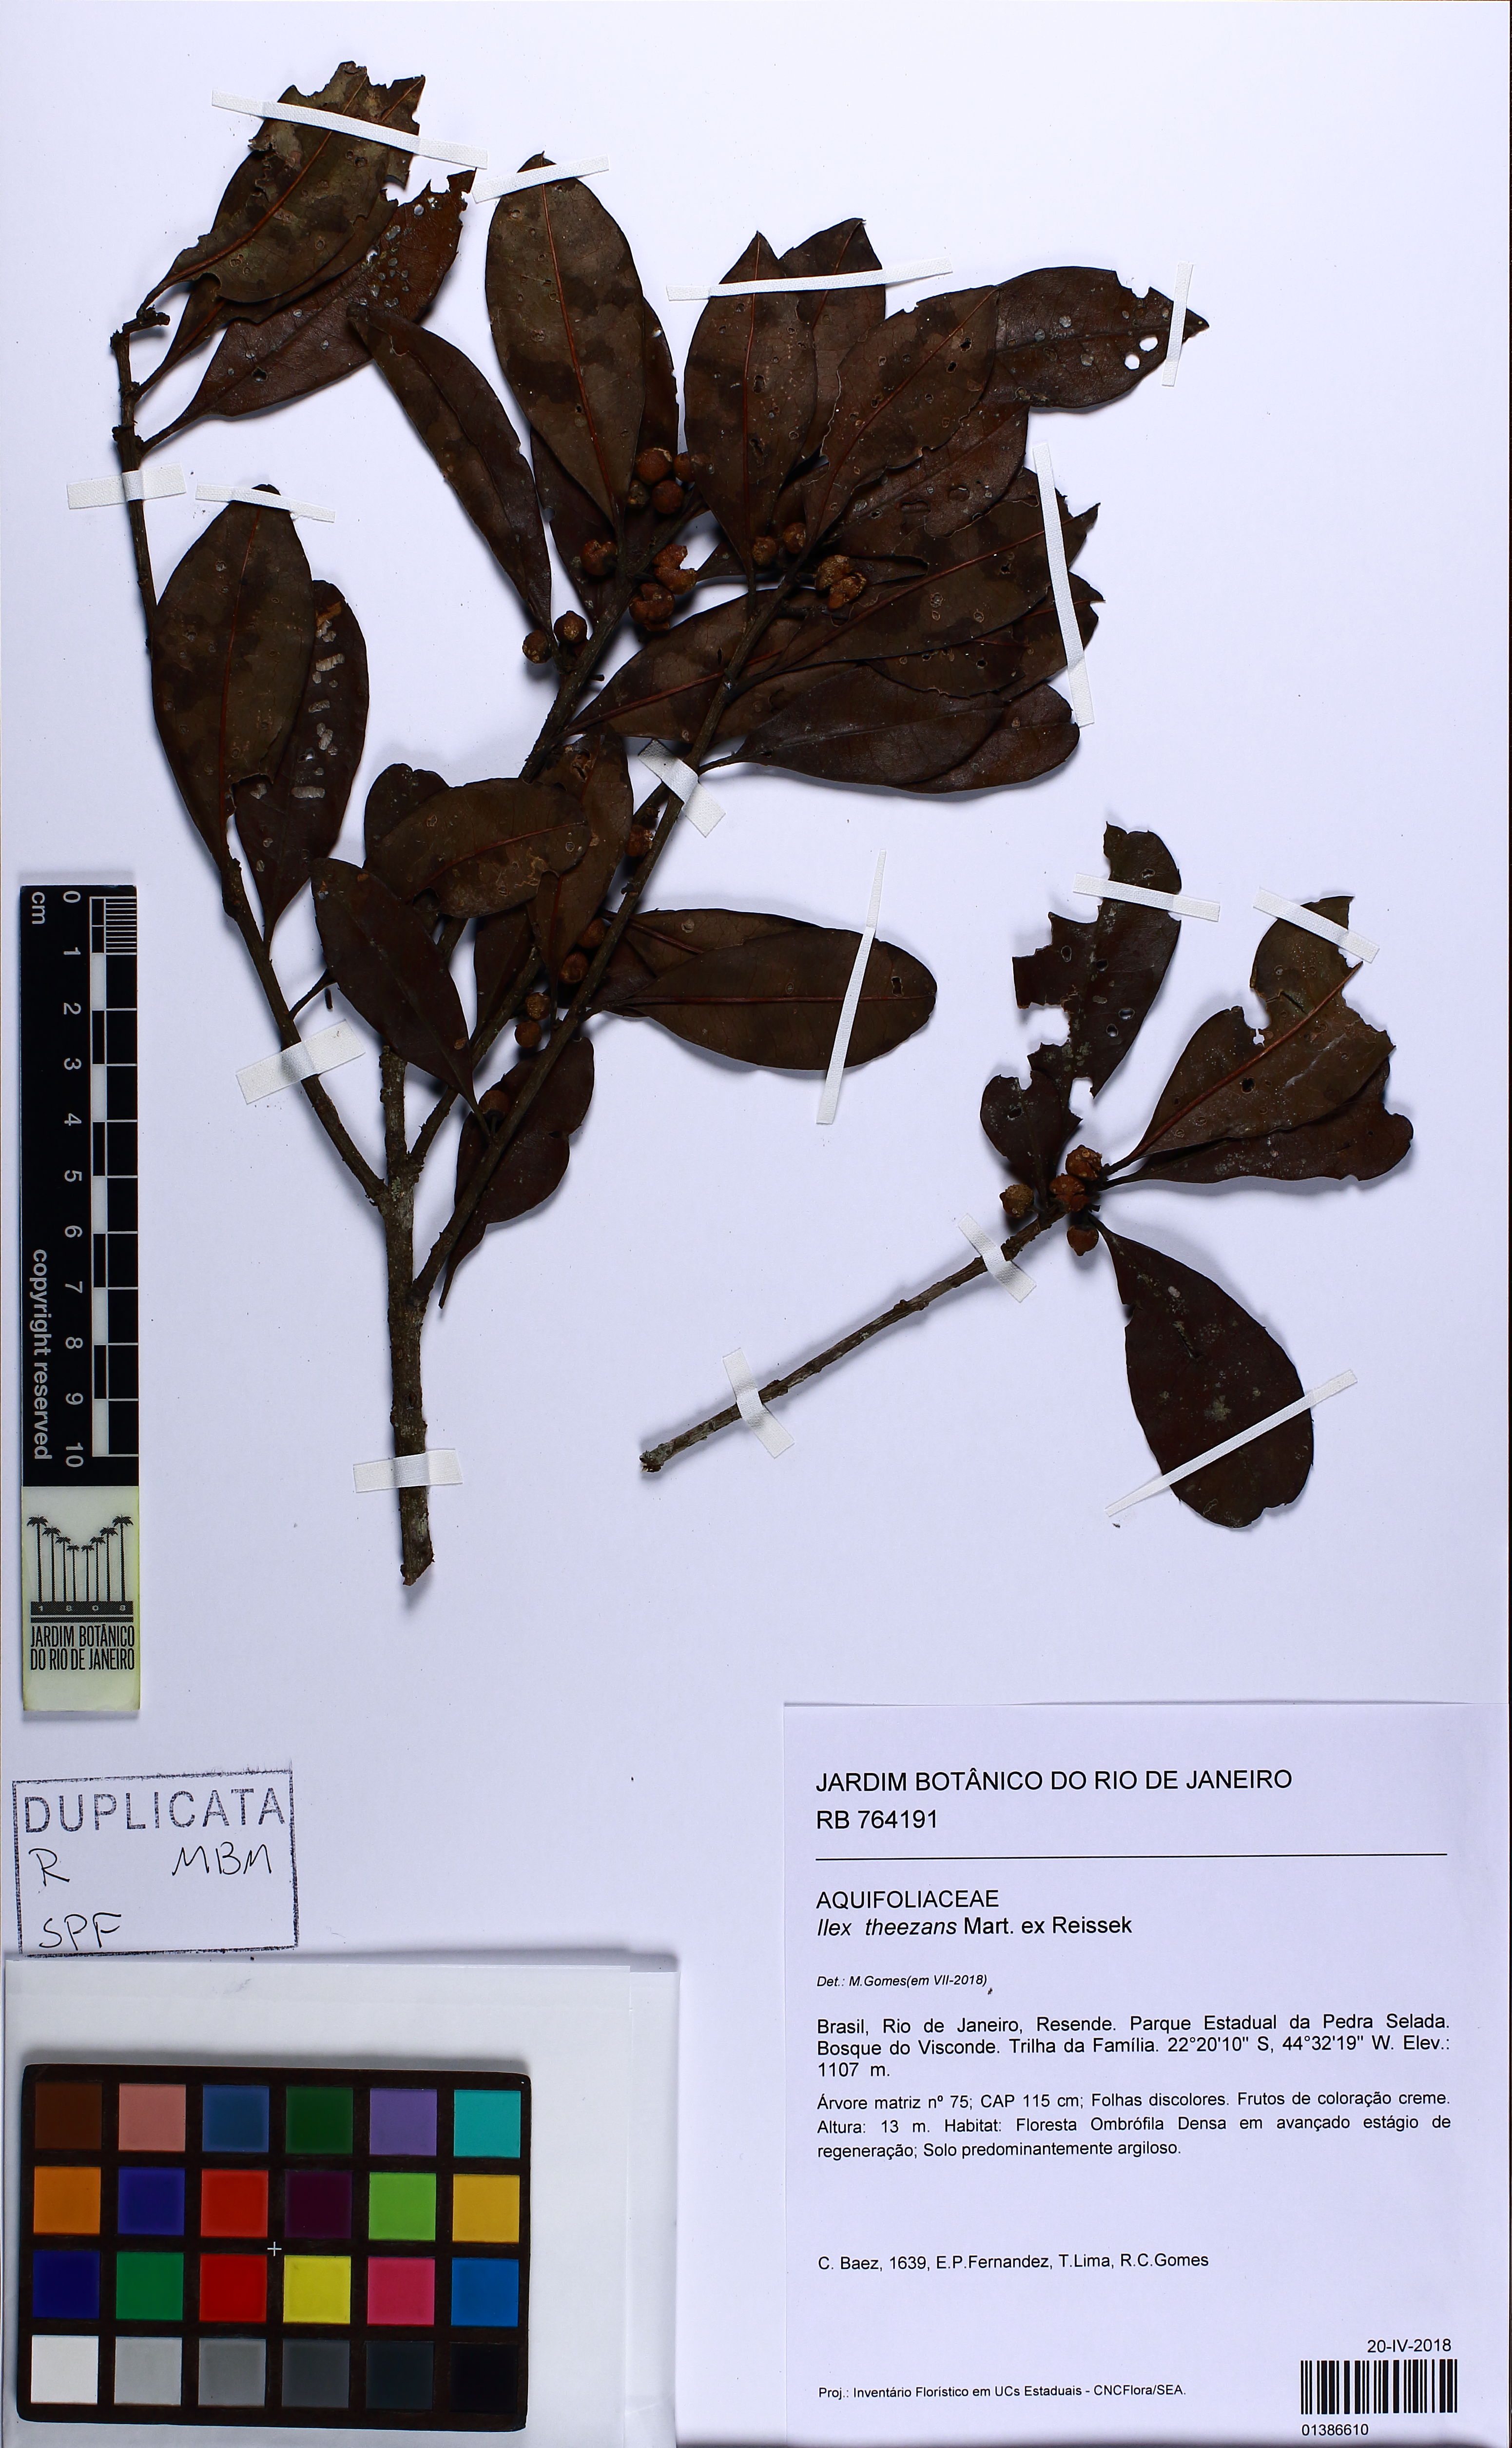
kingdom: Plantae
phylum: Tracheophyta
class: Magnoliopsida
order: Aquifoliales
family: Aquifoliaceae
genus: Ilex
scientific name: Ilex theezans
